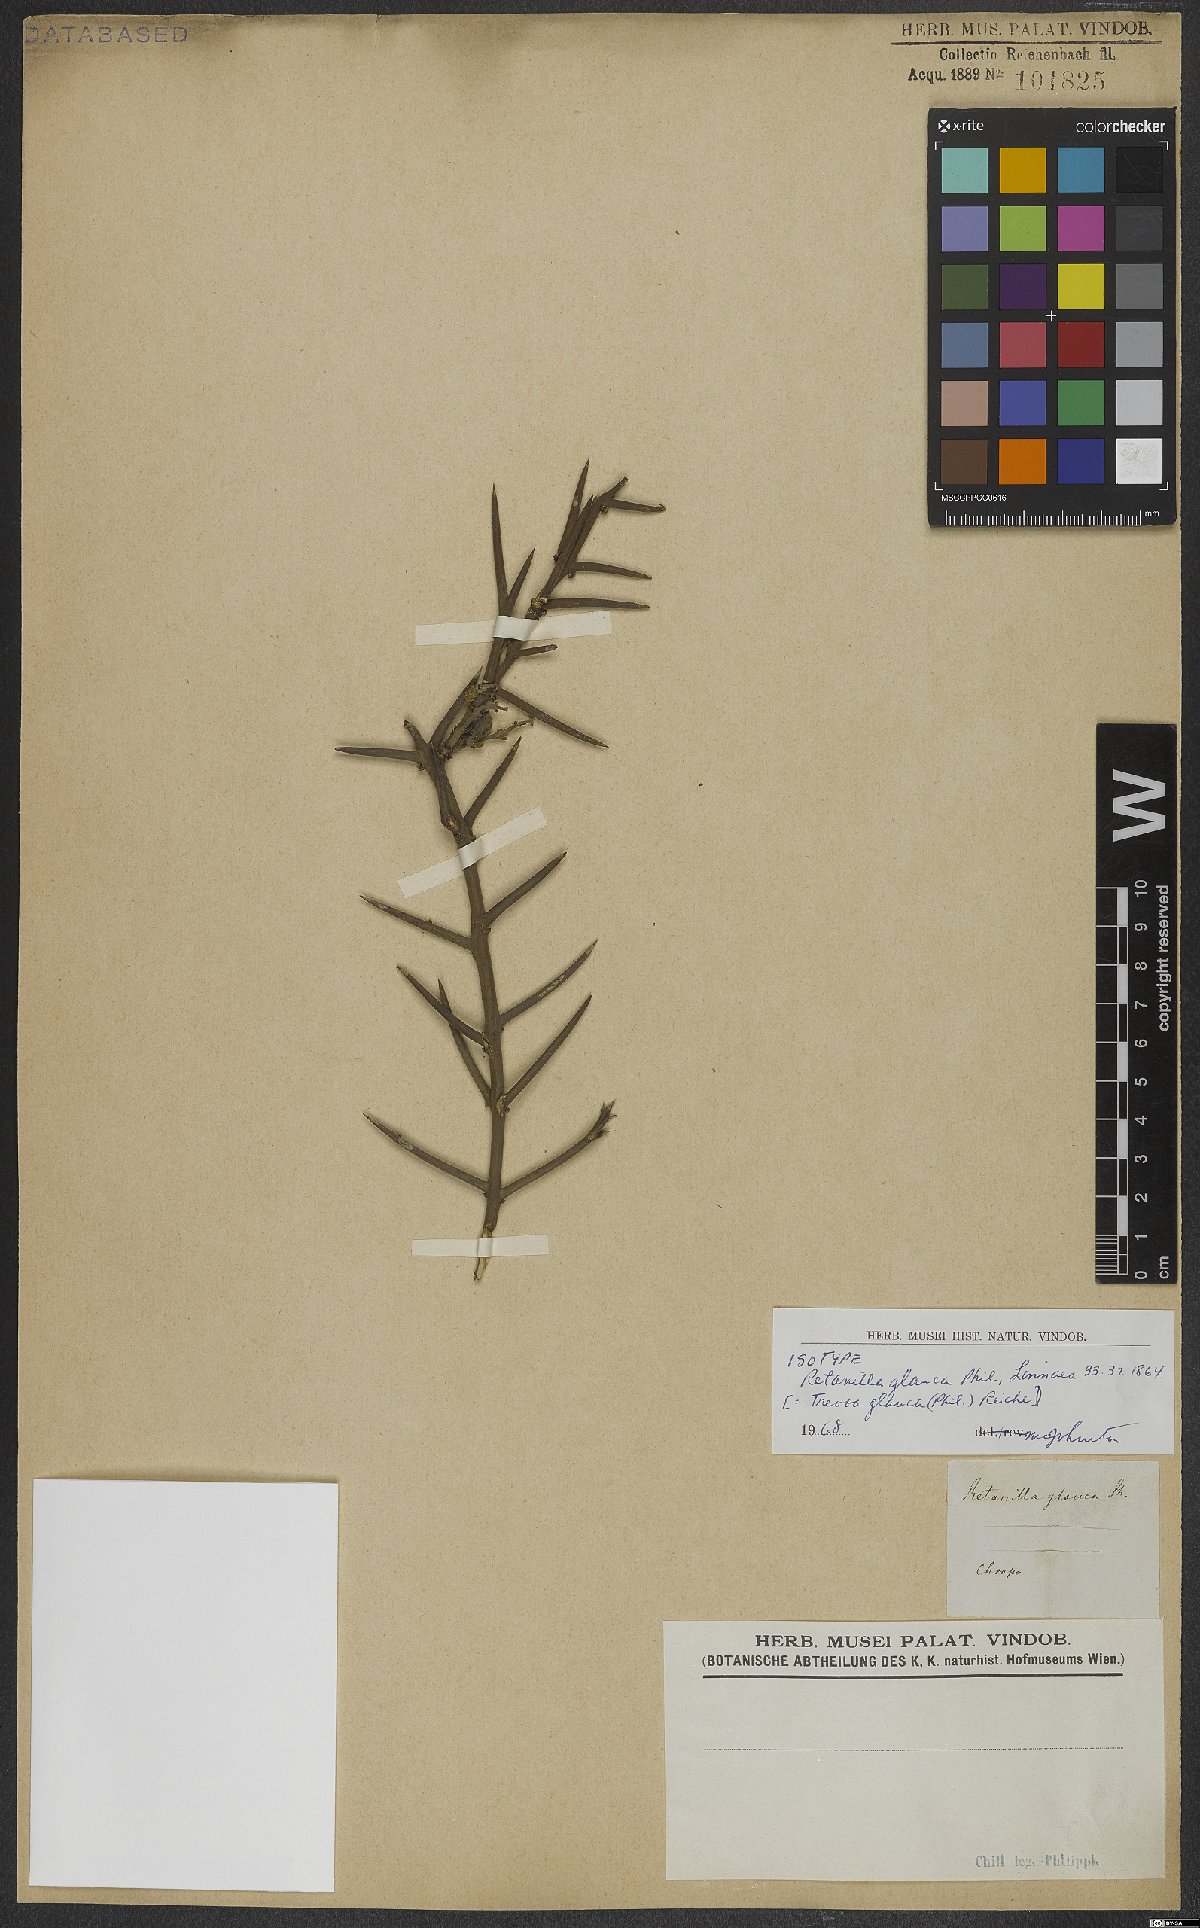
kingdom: Plantae
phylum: Tracheophyta
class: Magnoliopsida
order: Rosales
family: Rhamnaceae
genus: Trevoa
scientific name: Trevoa quinquenervia
